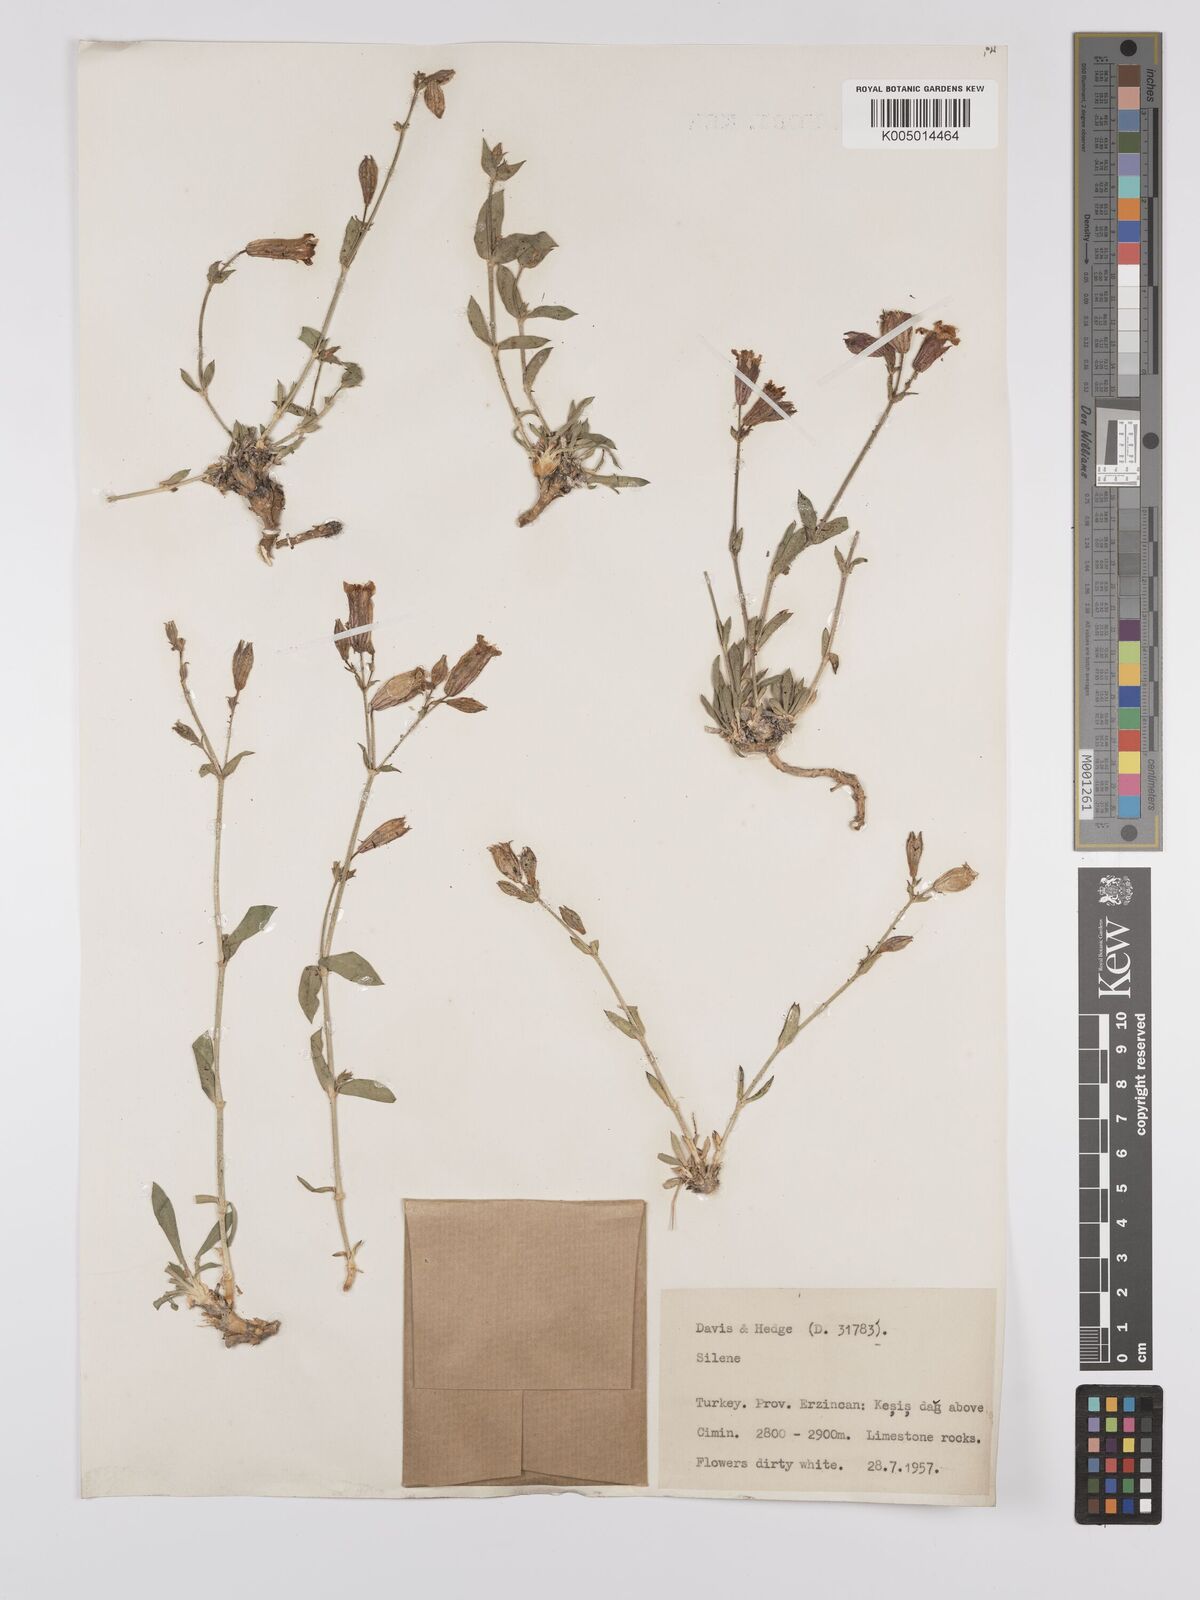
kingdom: Plantae
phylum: Tracheophyta
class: Magnoliopsida
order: Caryophyllales
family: Caryophyllaceae
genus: Silene
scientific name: Silene
